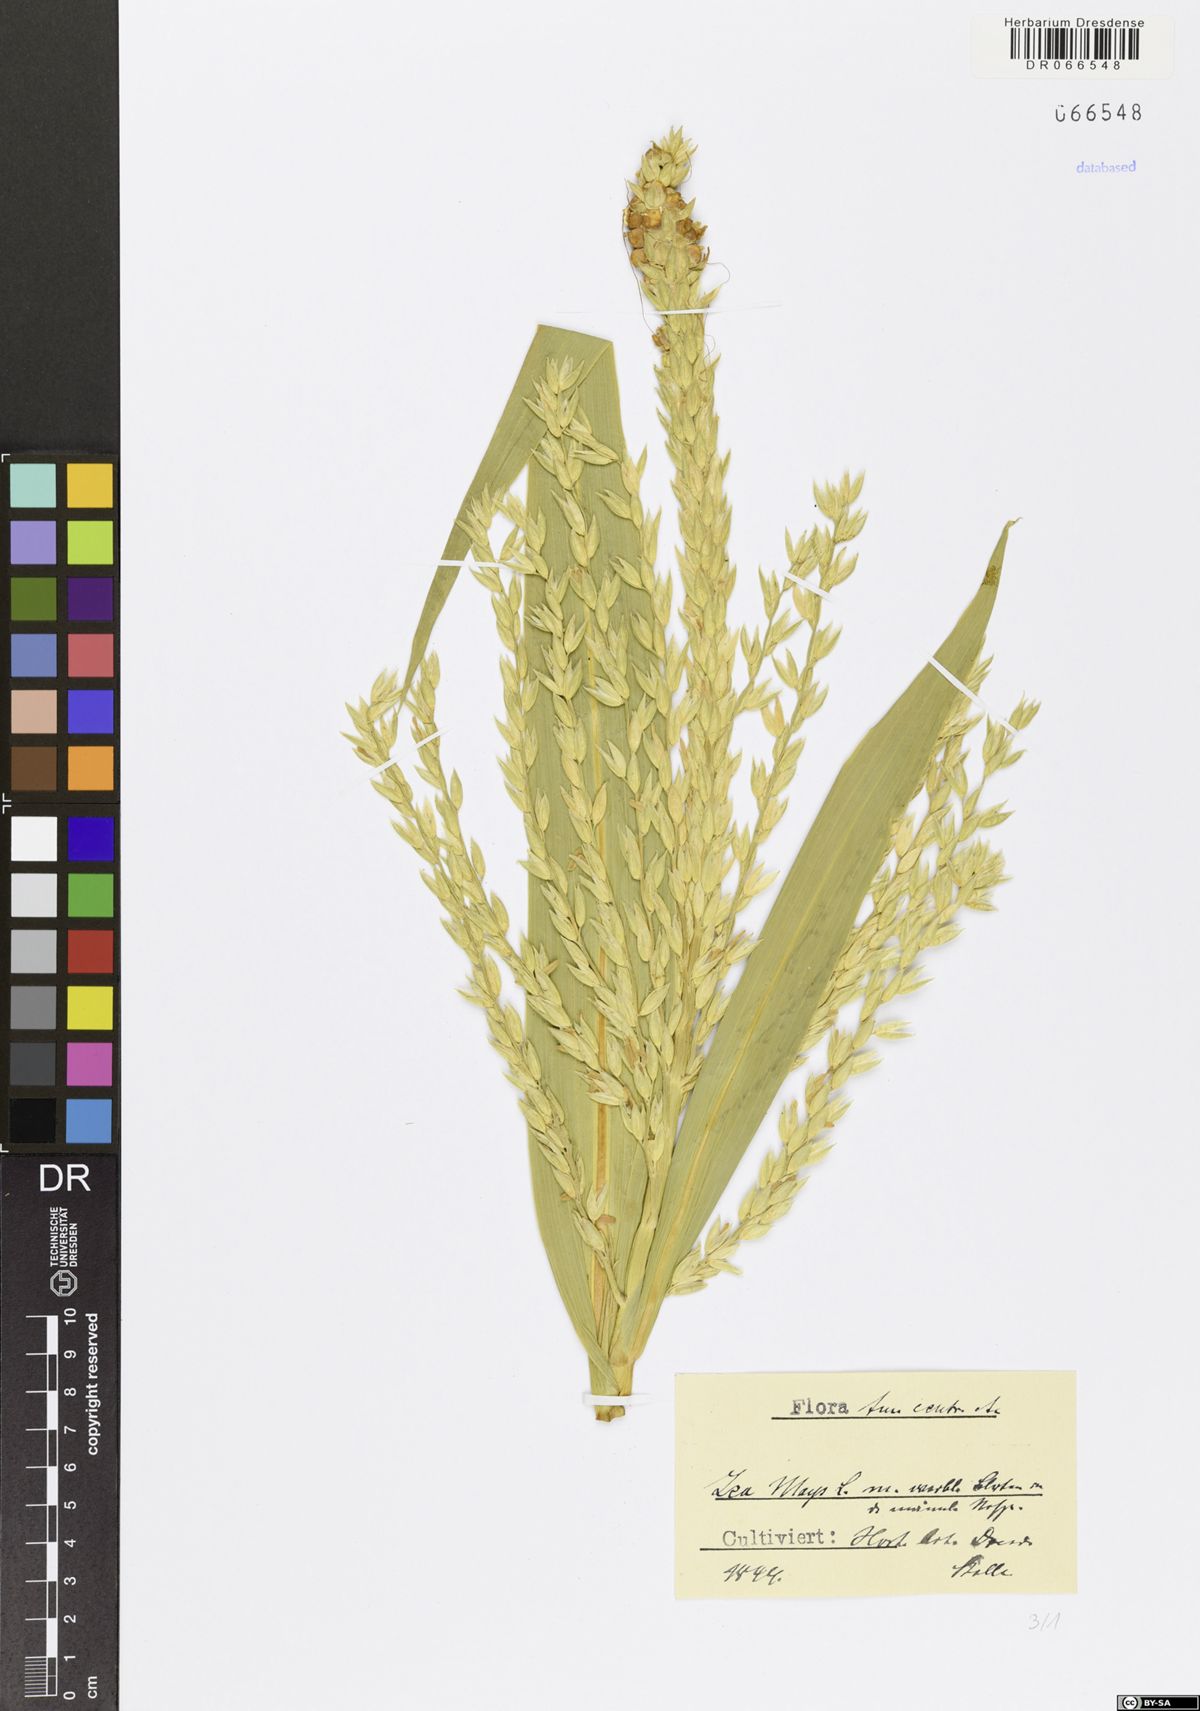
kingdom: Plantae
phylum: Tracheophyta
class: Liliopsida
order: Poales
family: Poaceae
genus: Zea
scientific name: Zea mays
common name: Maize
